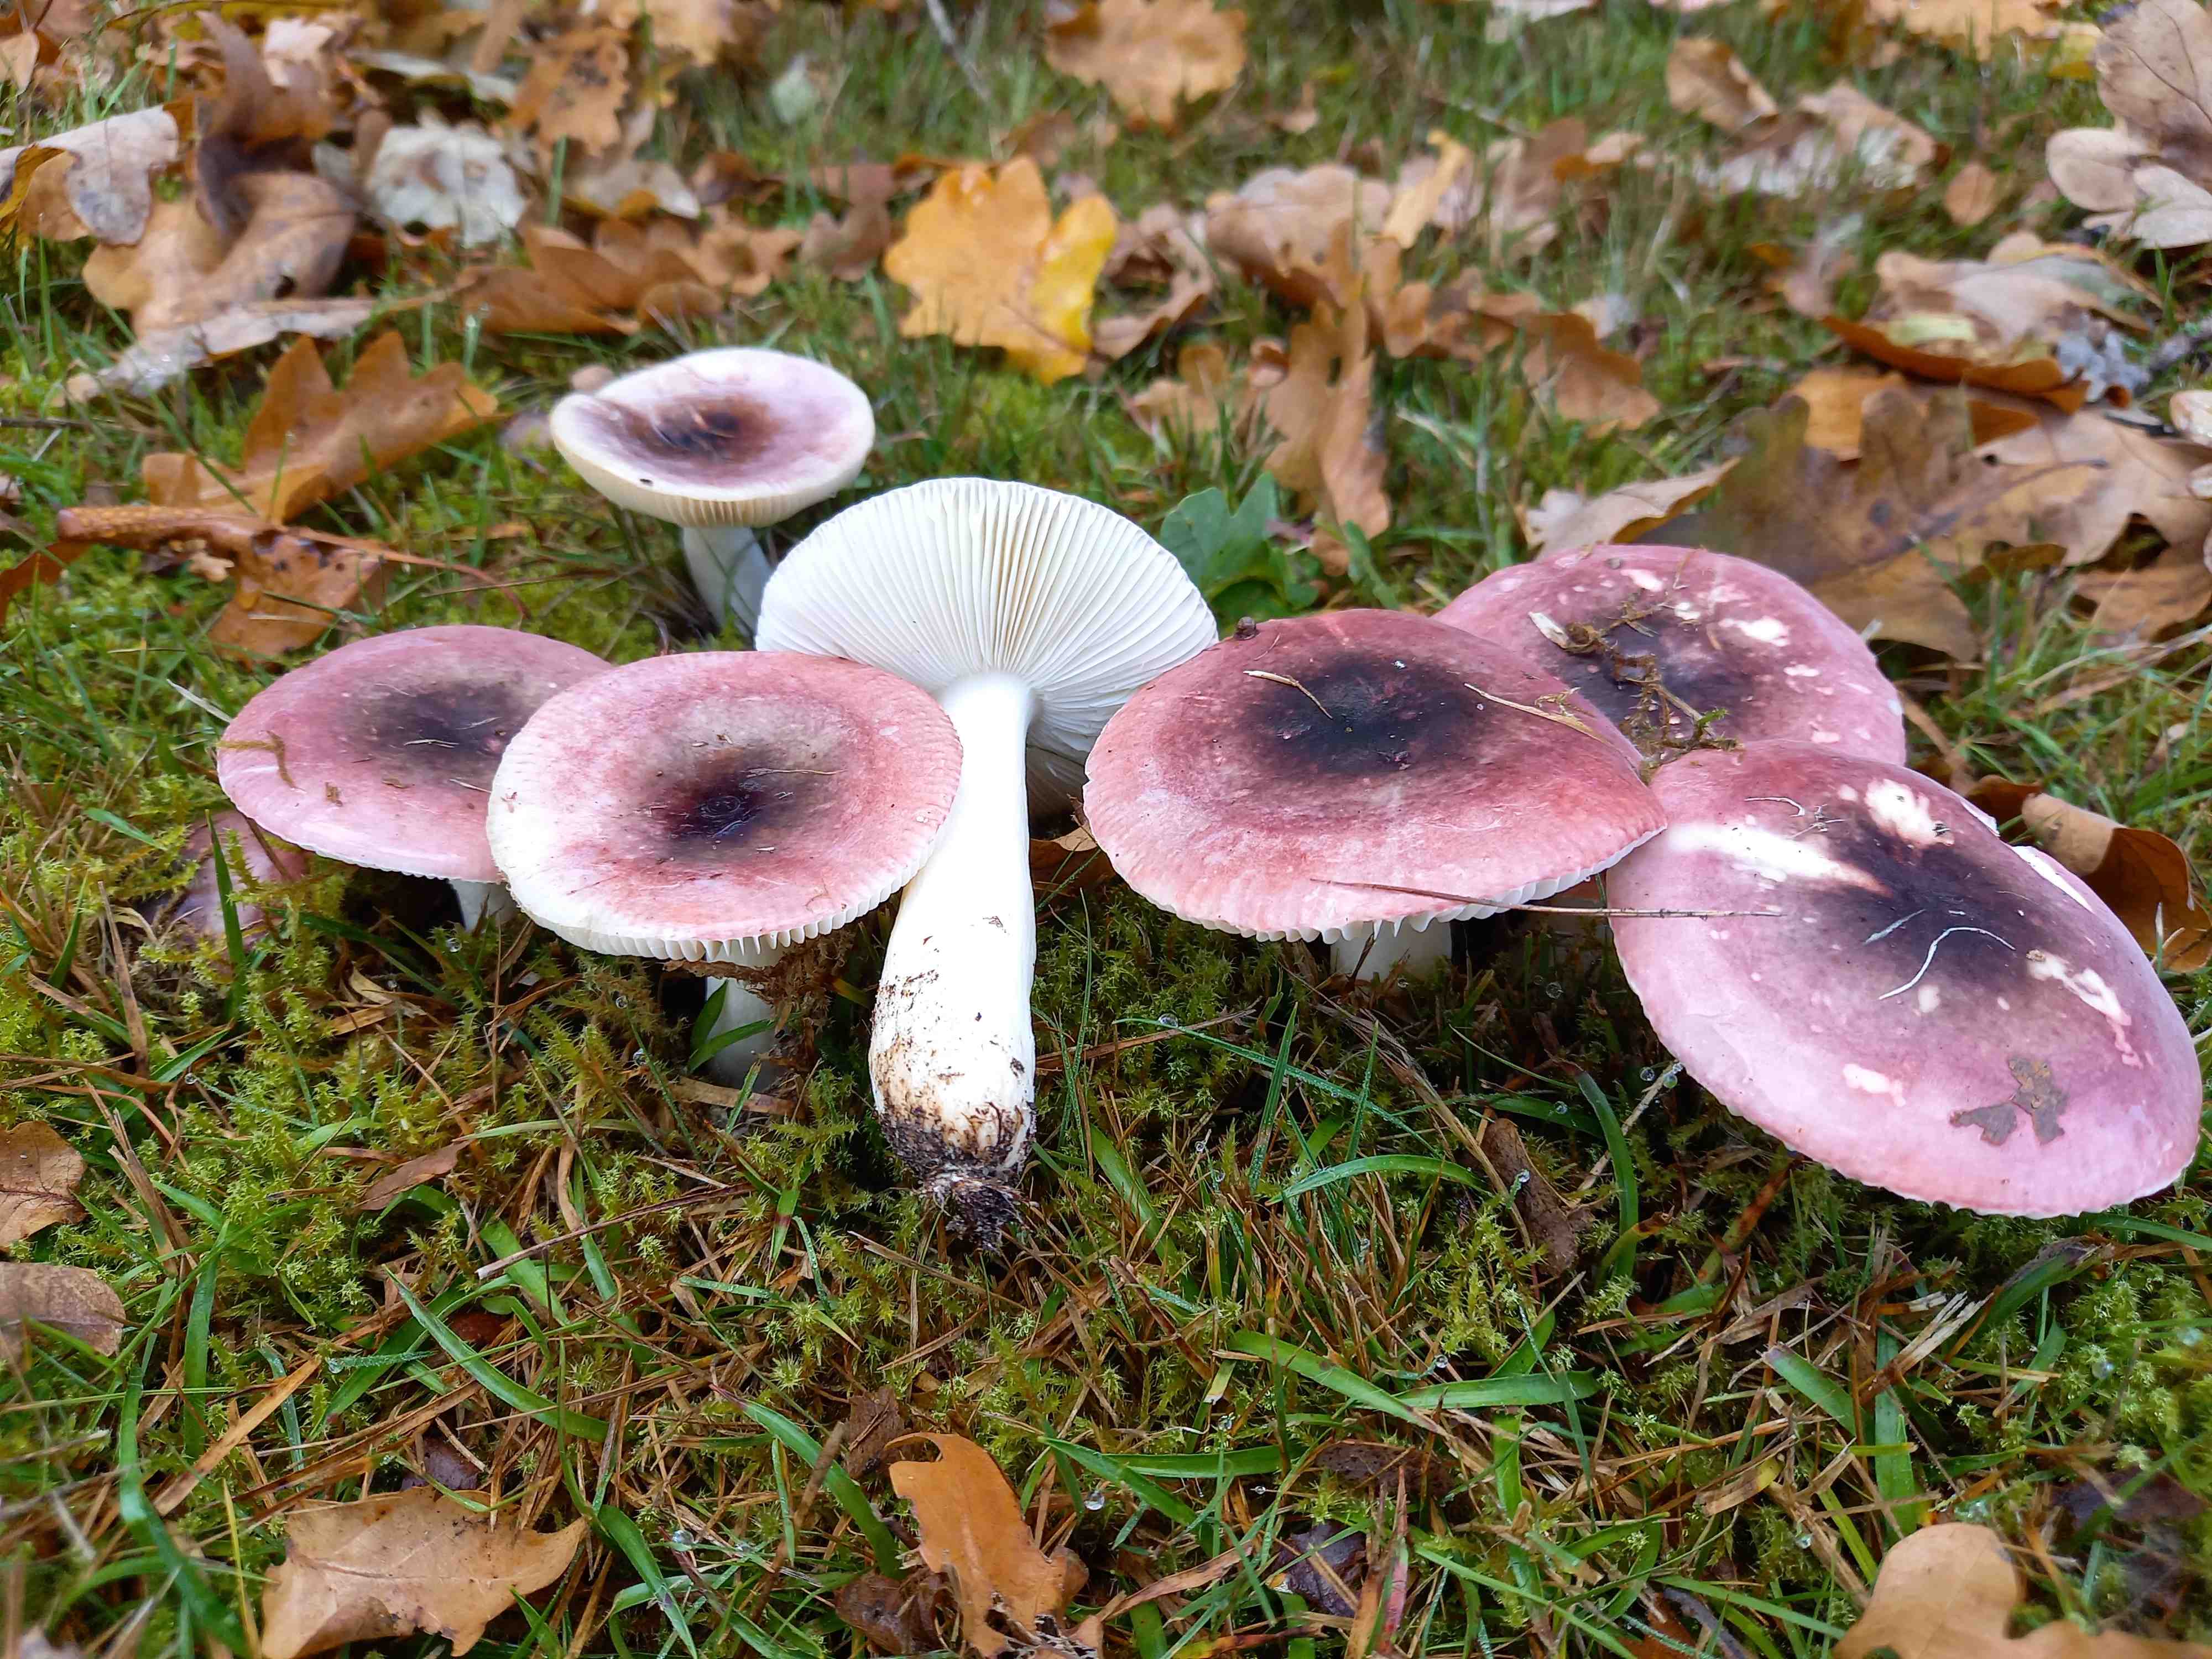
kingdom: Fungi
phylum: Basidiomycota
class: Agaricomycetes
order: Russulales
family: Russulaceae
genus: Russula
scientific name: Russula fragilis
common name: savbladet skørhat
